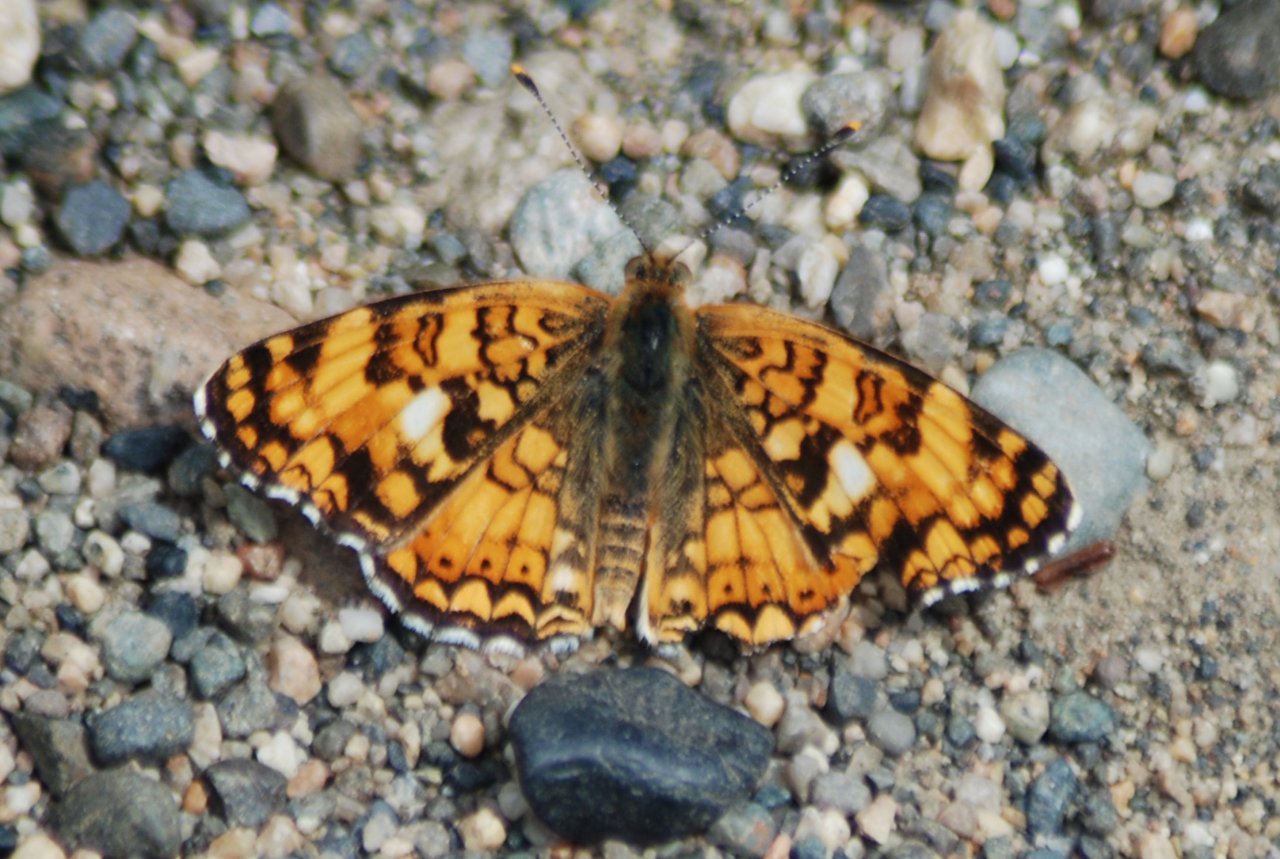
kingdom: Animalia
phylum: Arthropoda
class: Insecta
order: Lepidoptera
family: Nymphalidae
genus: Chlosyne
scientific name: Chlosyne palla
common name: Northern Checkerspot
